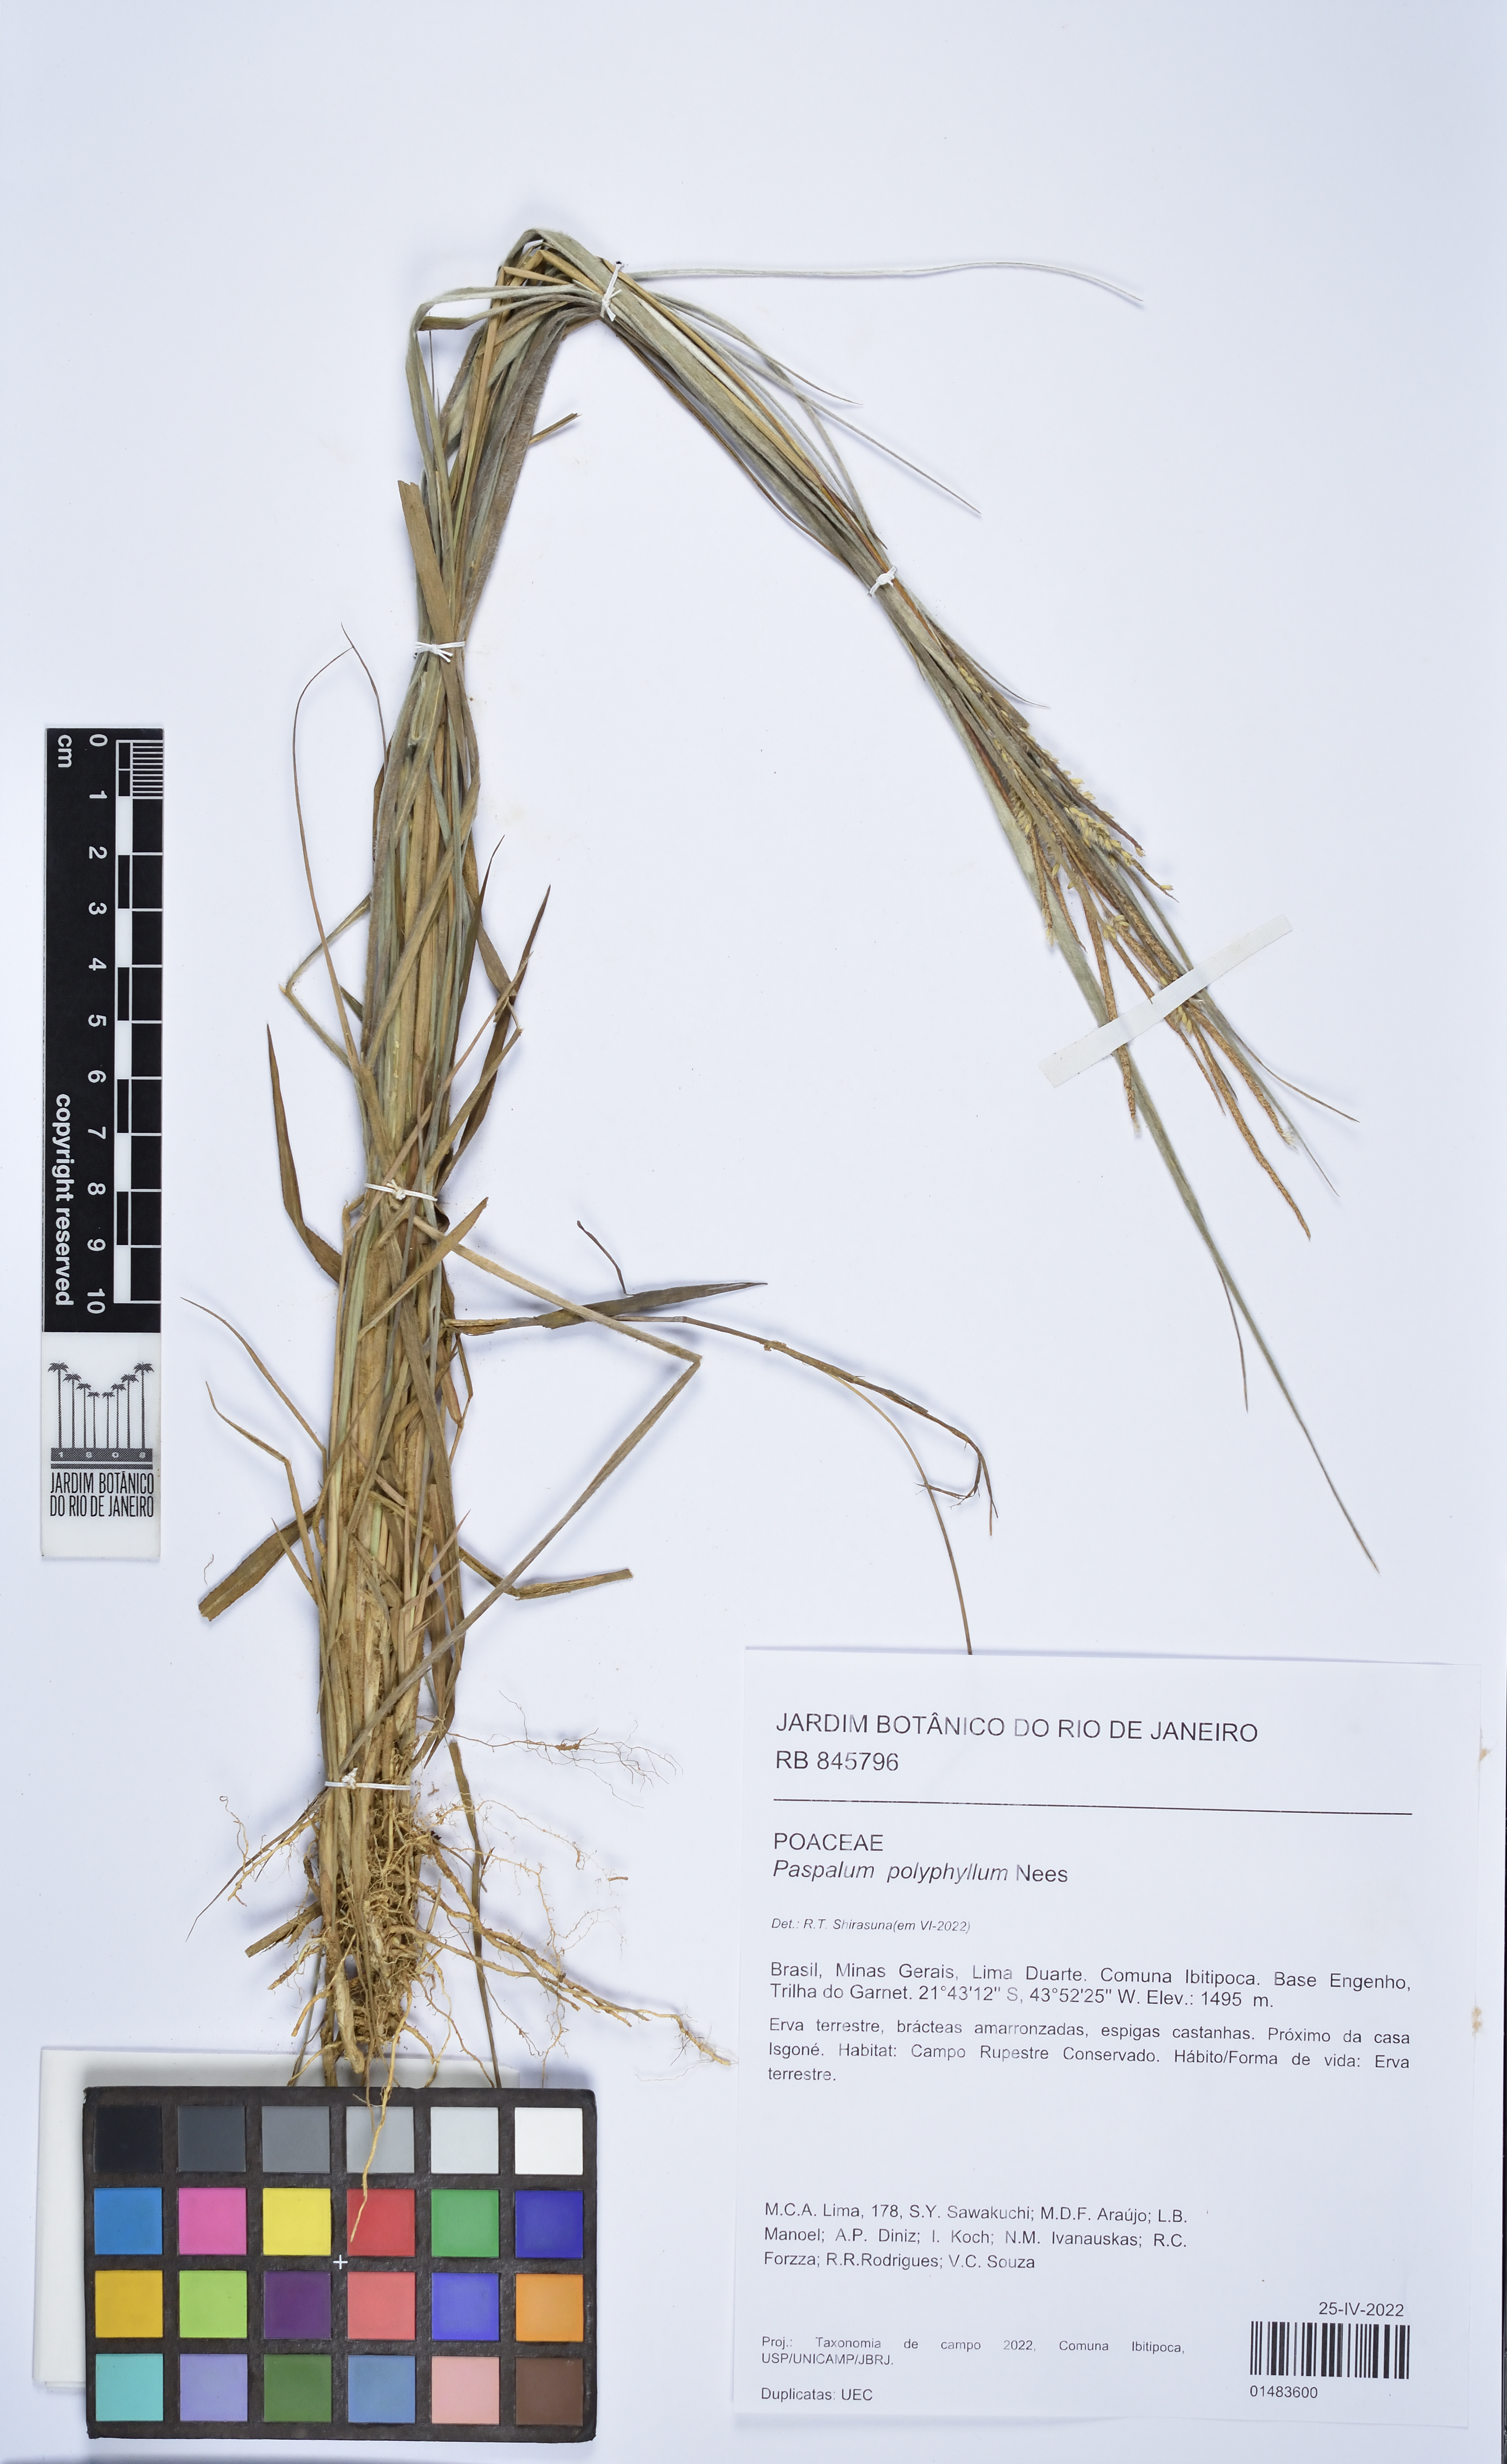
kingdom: Plantae
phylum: Tracheophyta
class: Liliopsida
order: Poales
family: Poaceae
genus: Paspalum
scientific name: Paspalum polyphyllum
